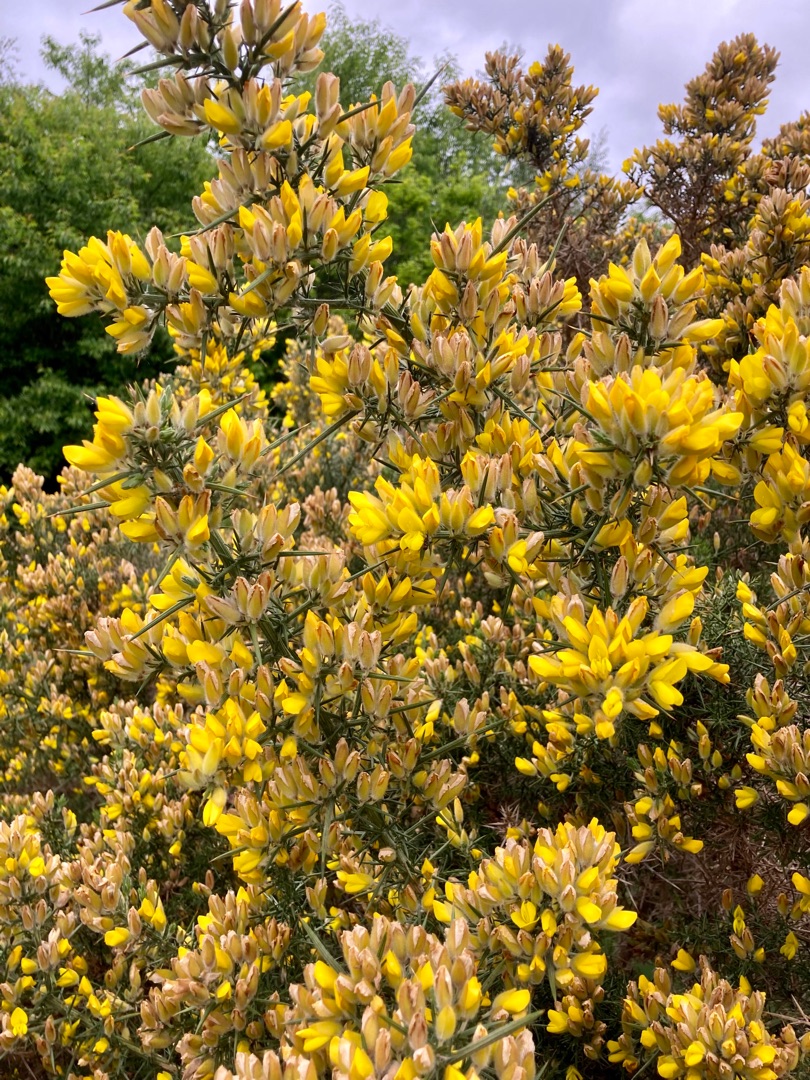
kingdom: Plantae
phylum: Tracheophyta
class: Magnoliopsida
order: Fabales
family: Fabaceae
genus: Ulex
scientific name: Ulex europaeus
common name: Tornblad
